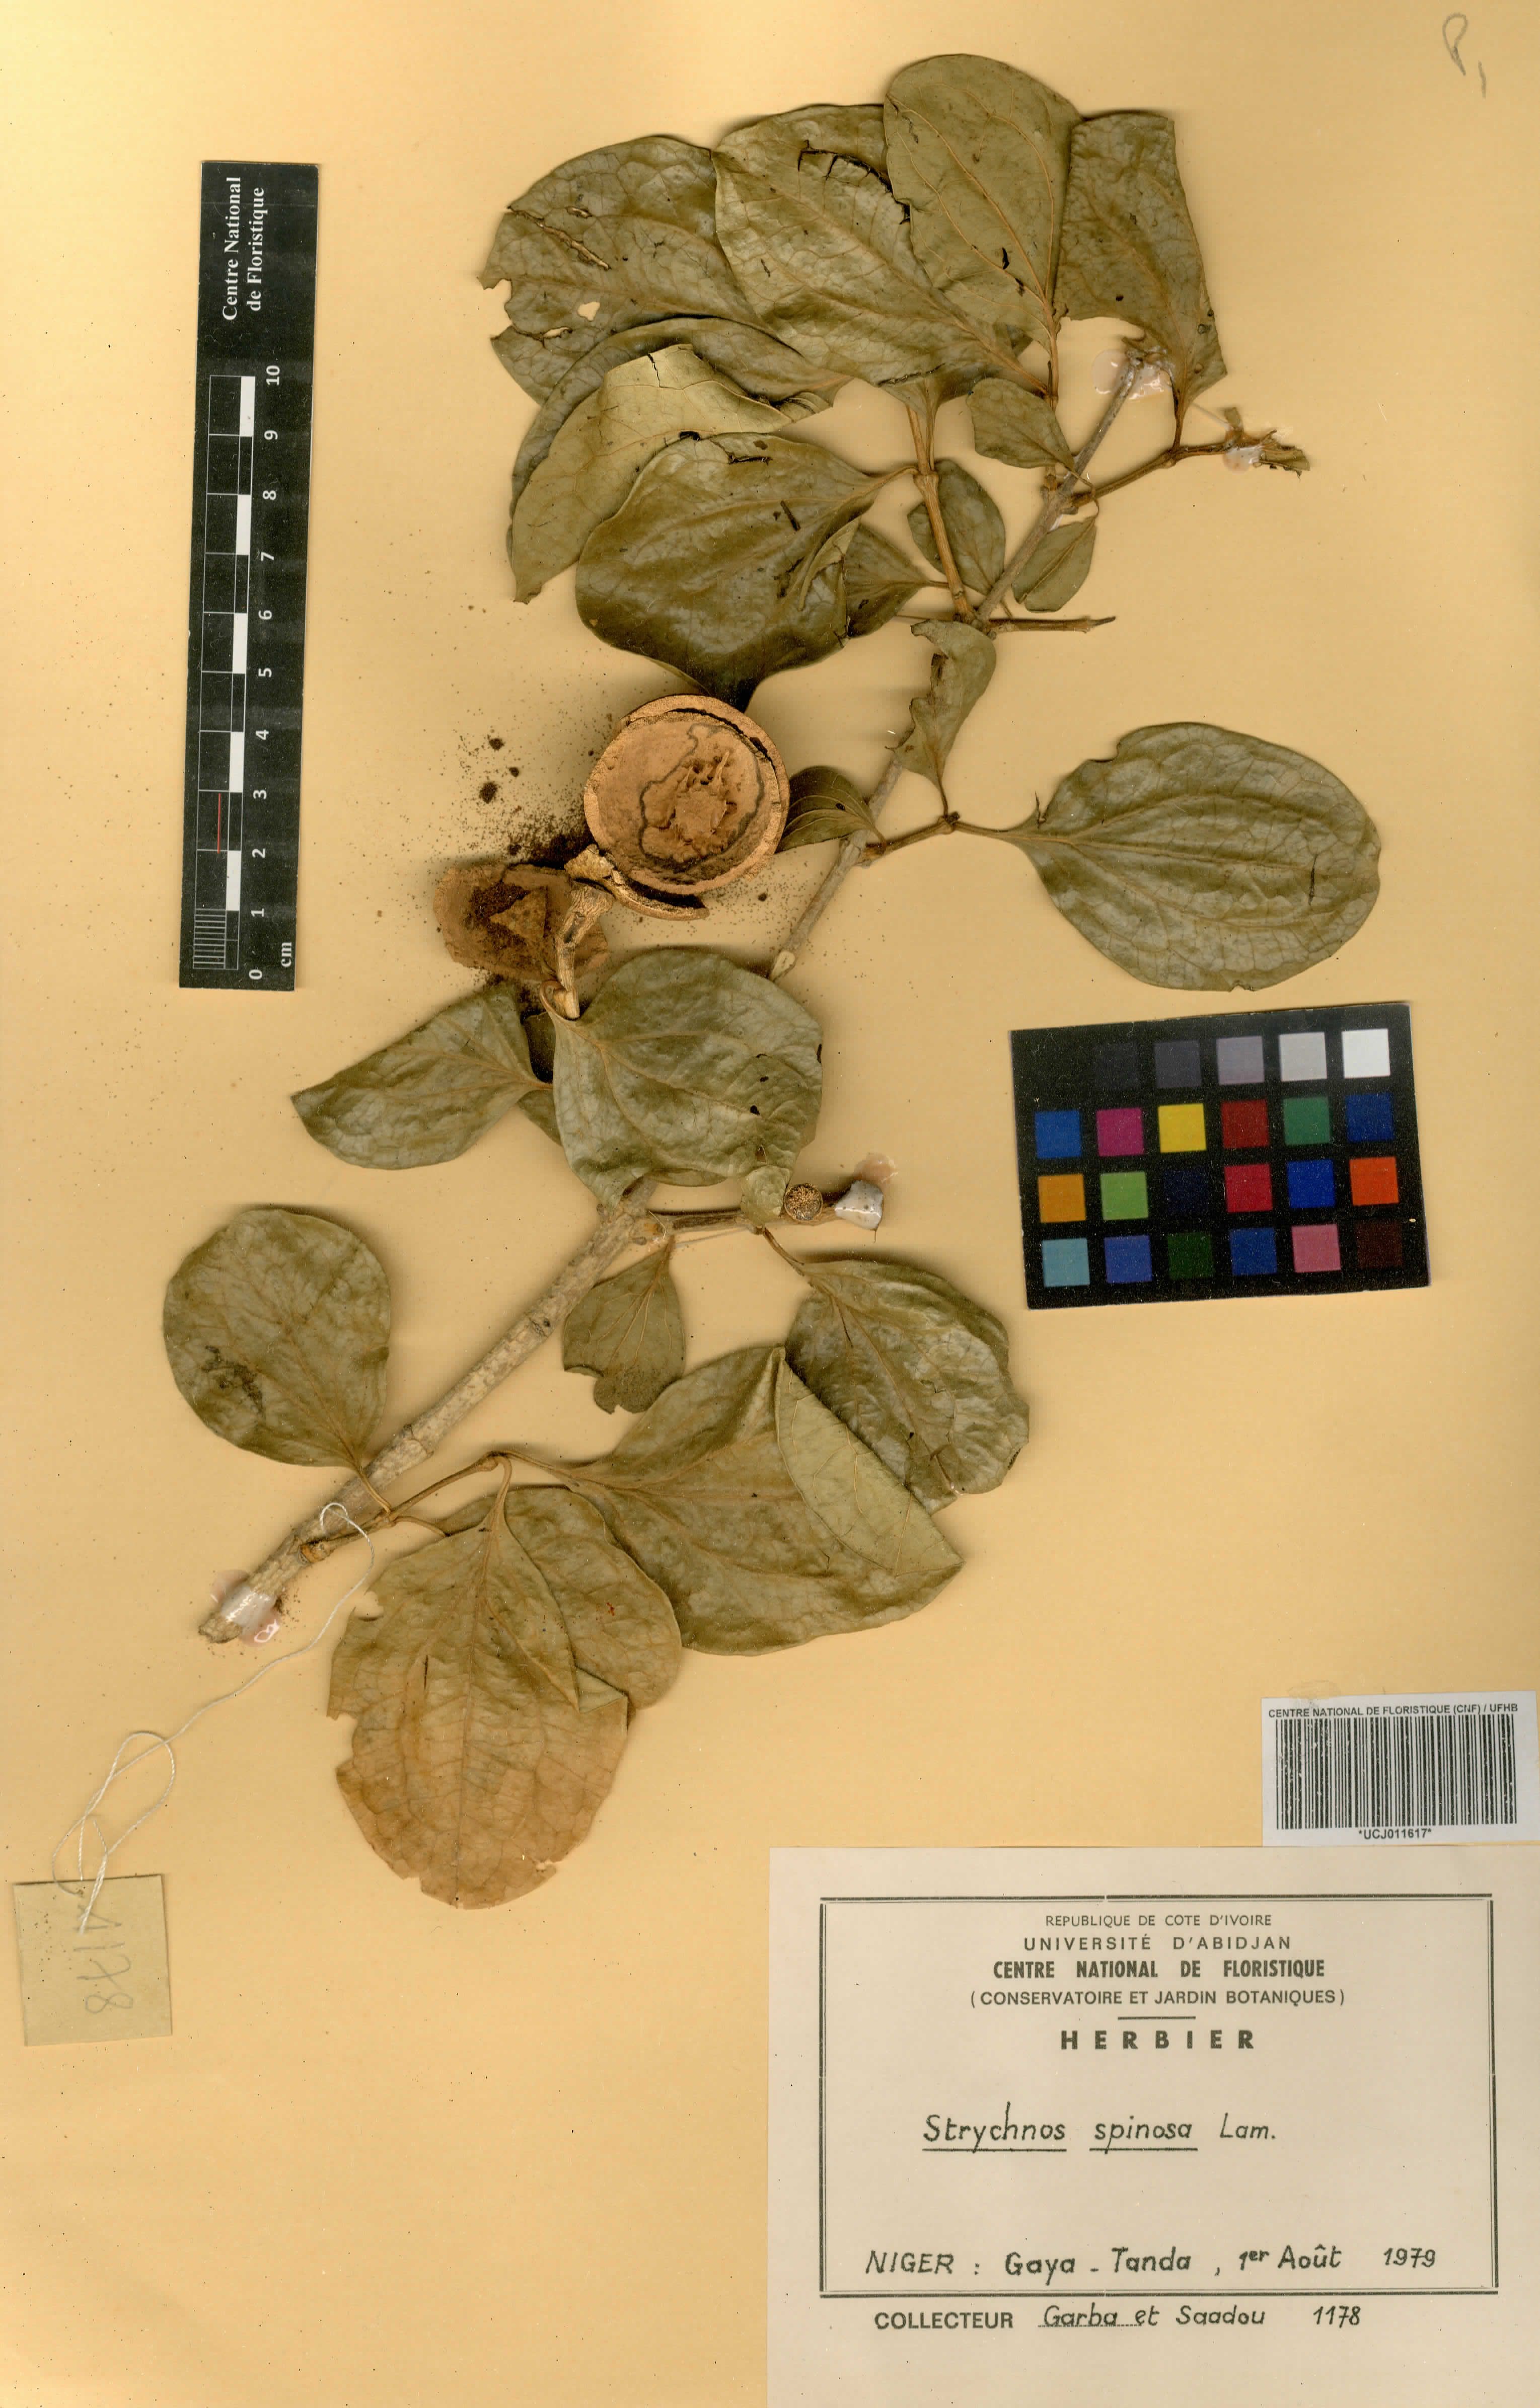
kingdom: Plantae
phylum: Tracheophyta
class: Magnoliopsida
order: Gentianales
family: Loganiaceae
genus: Strychnos
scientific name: Strychnos spinosa
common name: Natal orange
